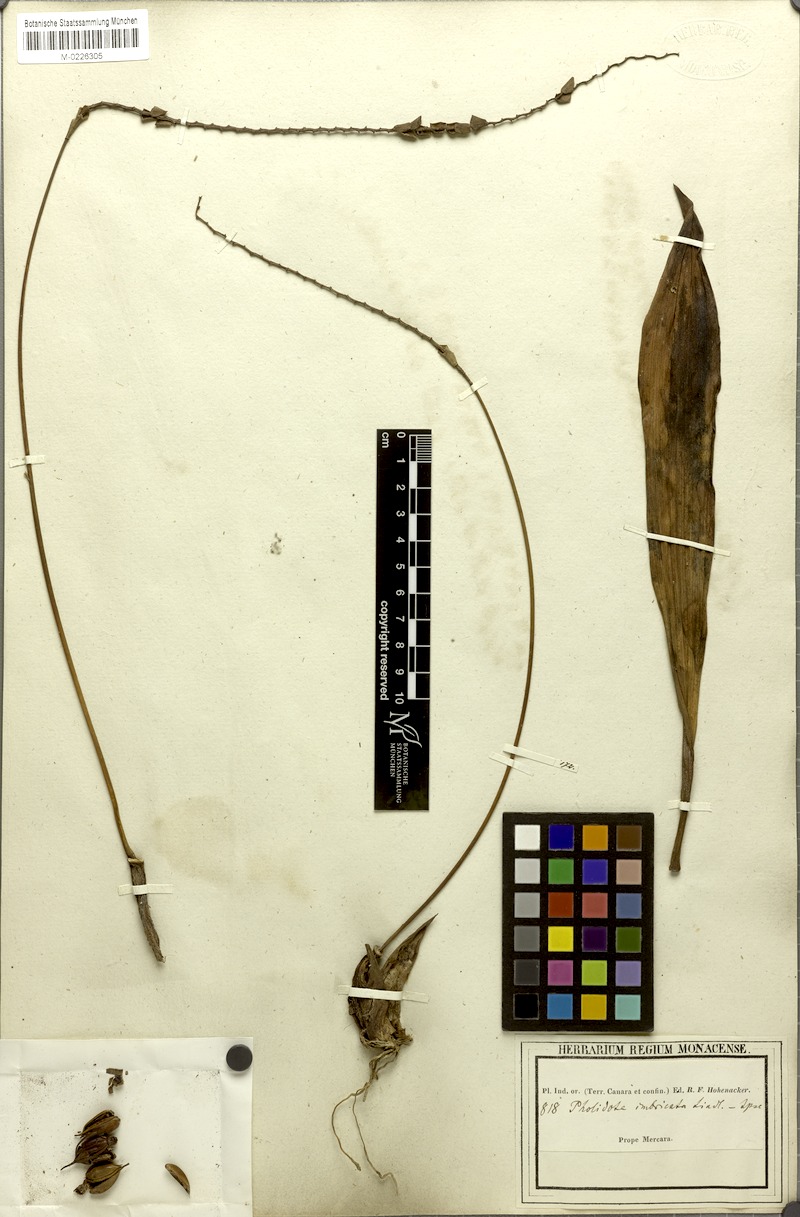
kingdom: Plantae
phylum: Tracheophyta
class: Liliopsida
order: Asparagales
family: Orchidaceae
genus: Pholidota
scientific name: Pholidota imbricata
